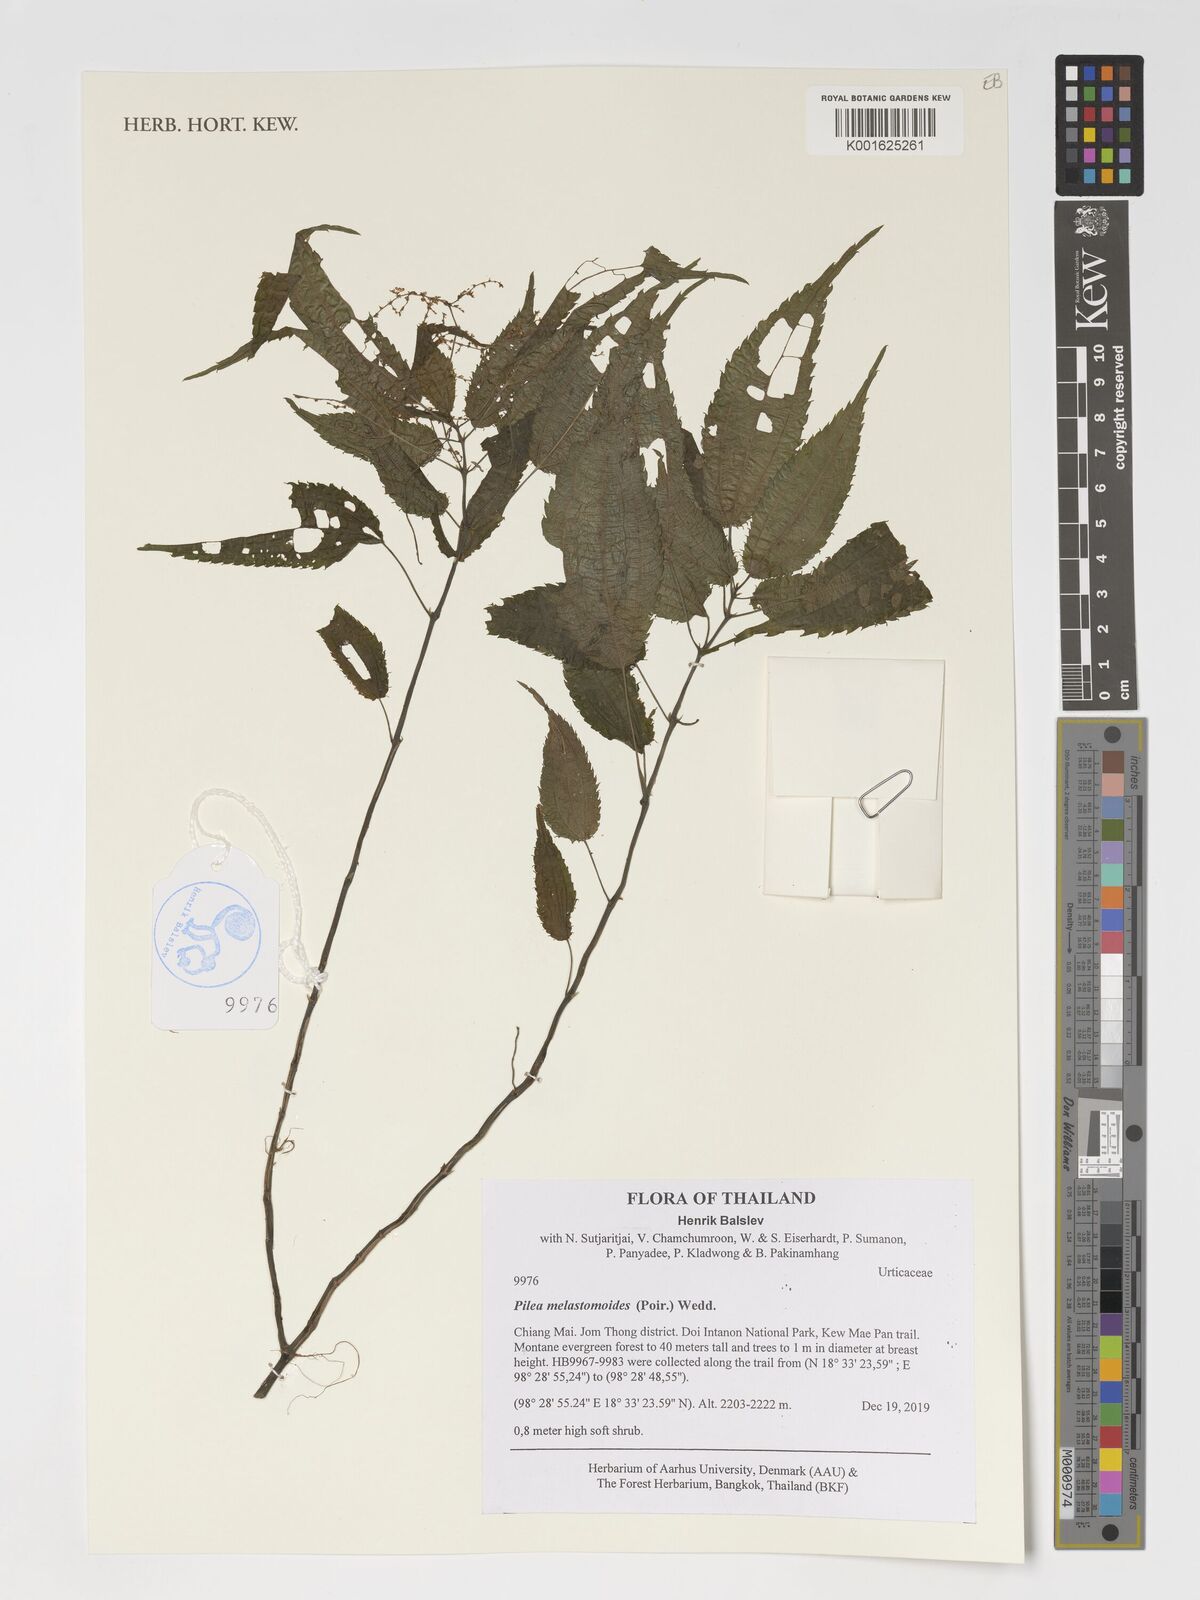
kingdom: Plantae
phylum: Tracheophyta
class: Magnoliopsida
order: Rosales
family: Urticaceae
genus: Pilea
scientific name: Pilea melastomoides
